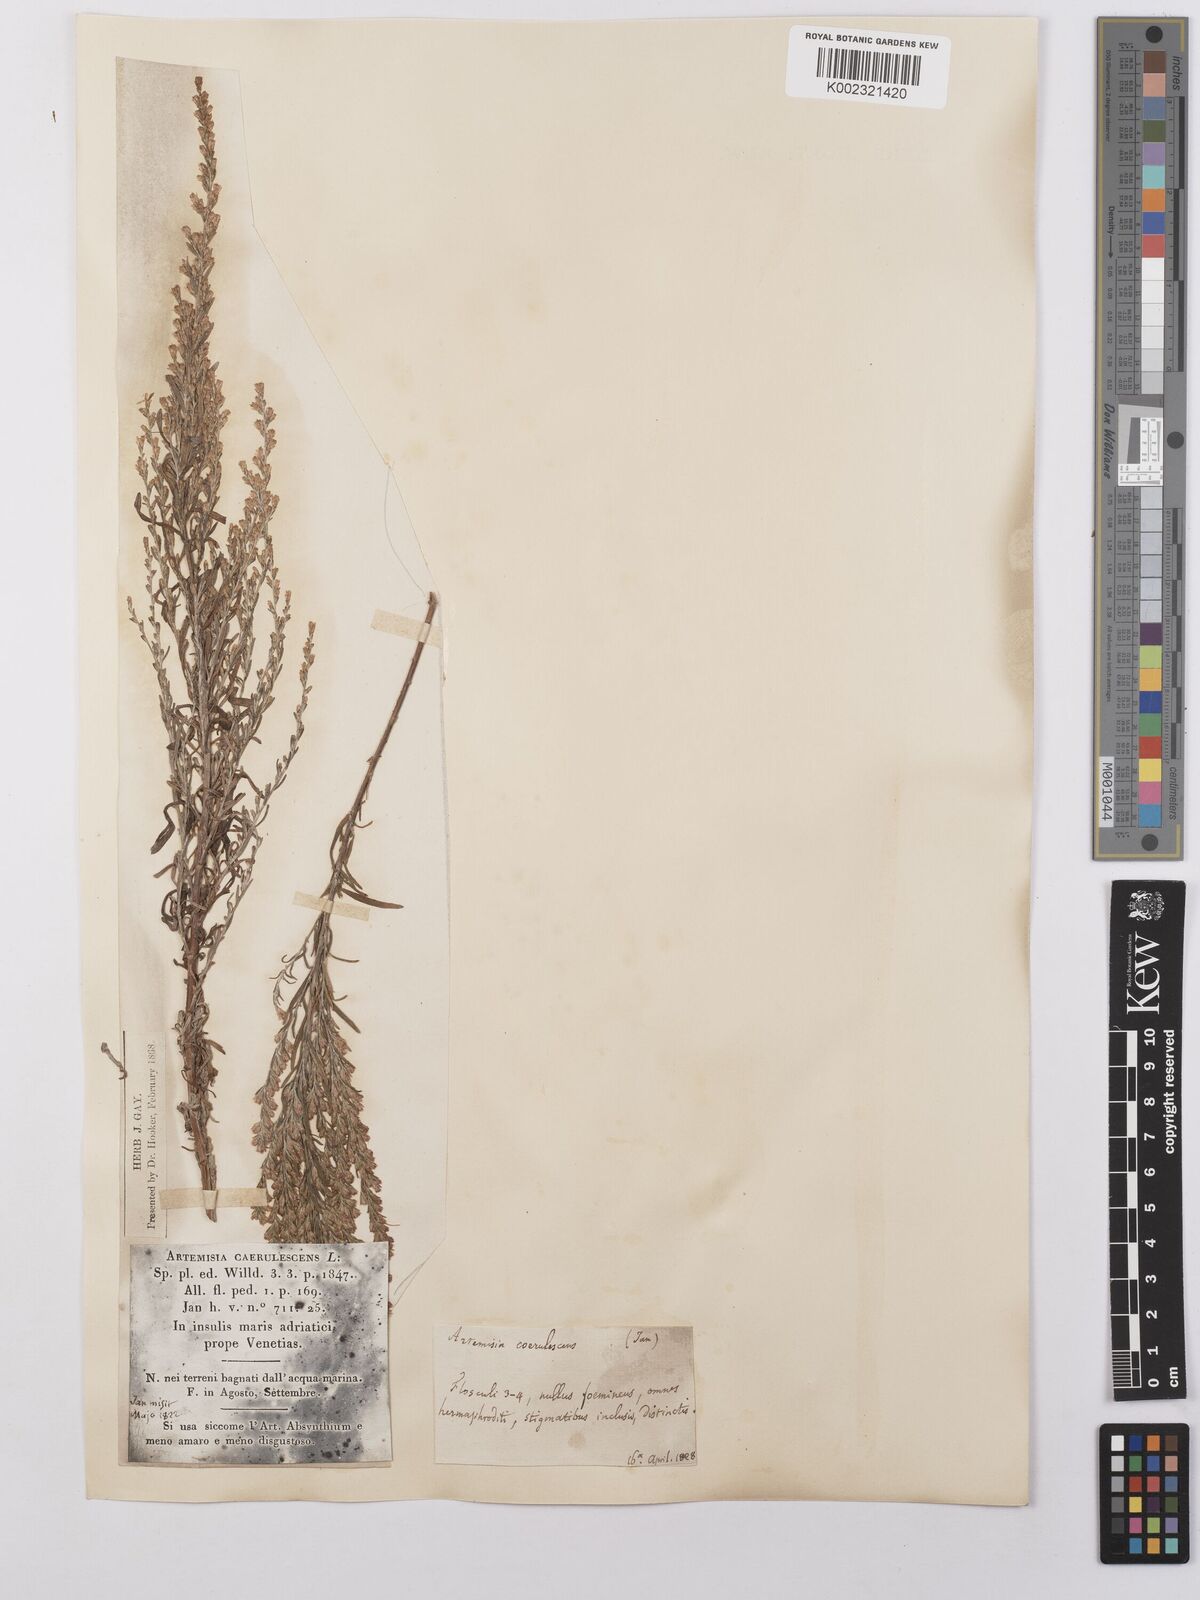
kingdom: Plantae
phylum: Tracheophyta
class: Magnoliopsida
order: Asterales
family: Asteraceae
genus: Artemisia
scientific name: Artemisia caerulescens
